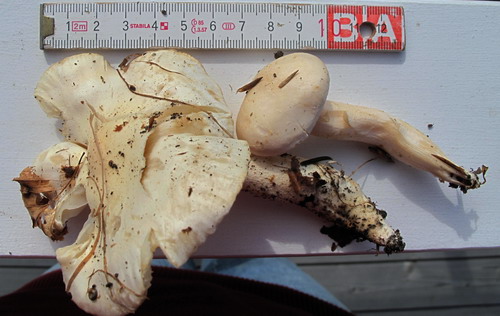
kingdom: Fungi
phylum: Basidiomycota
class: Agaricomycetes
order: Agaricales
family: Hygrophoraceae
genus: Hygrophorus
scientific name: Hygrophorus penarius
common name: spiselig sneglehat
